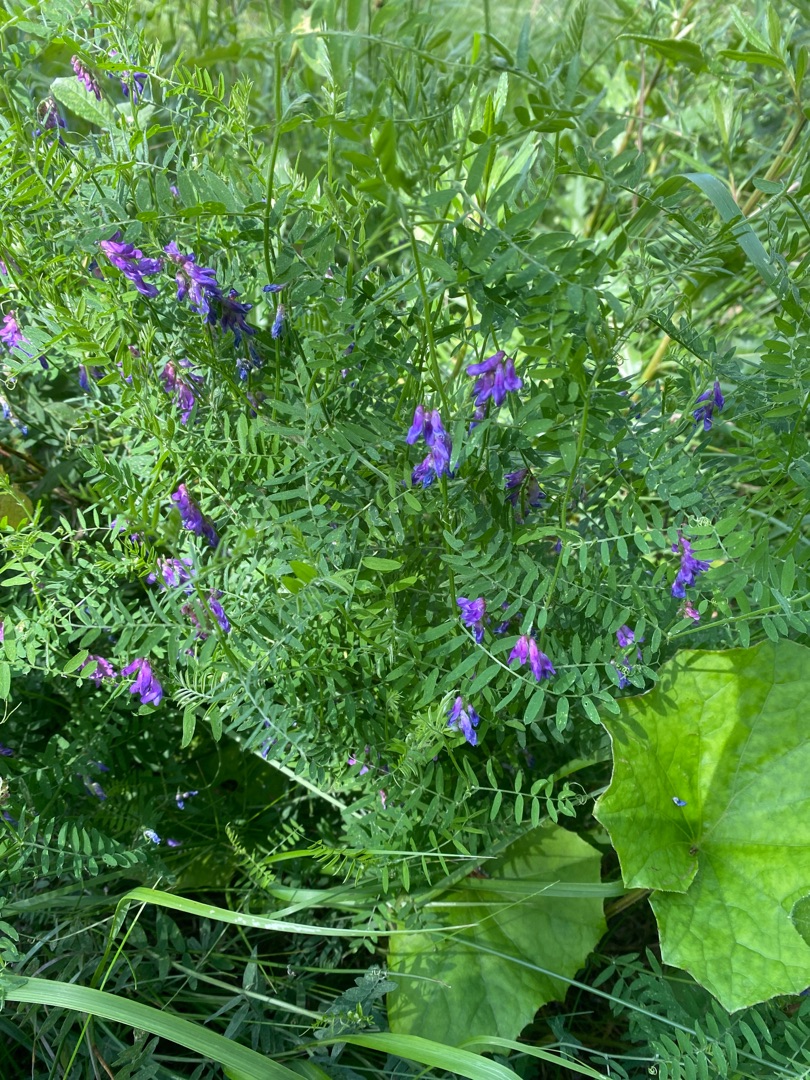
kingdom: Plantae
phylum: Tracheophyta
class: Magnoliopsida
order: Fabales
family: Fabaceae
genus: Vicia
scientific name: Vicia cracca
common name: Muse-vikke
